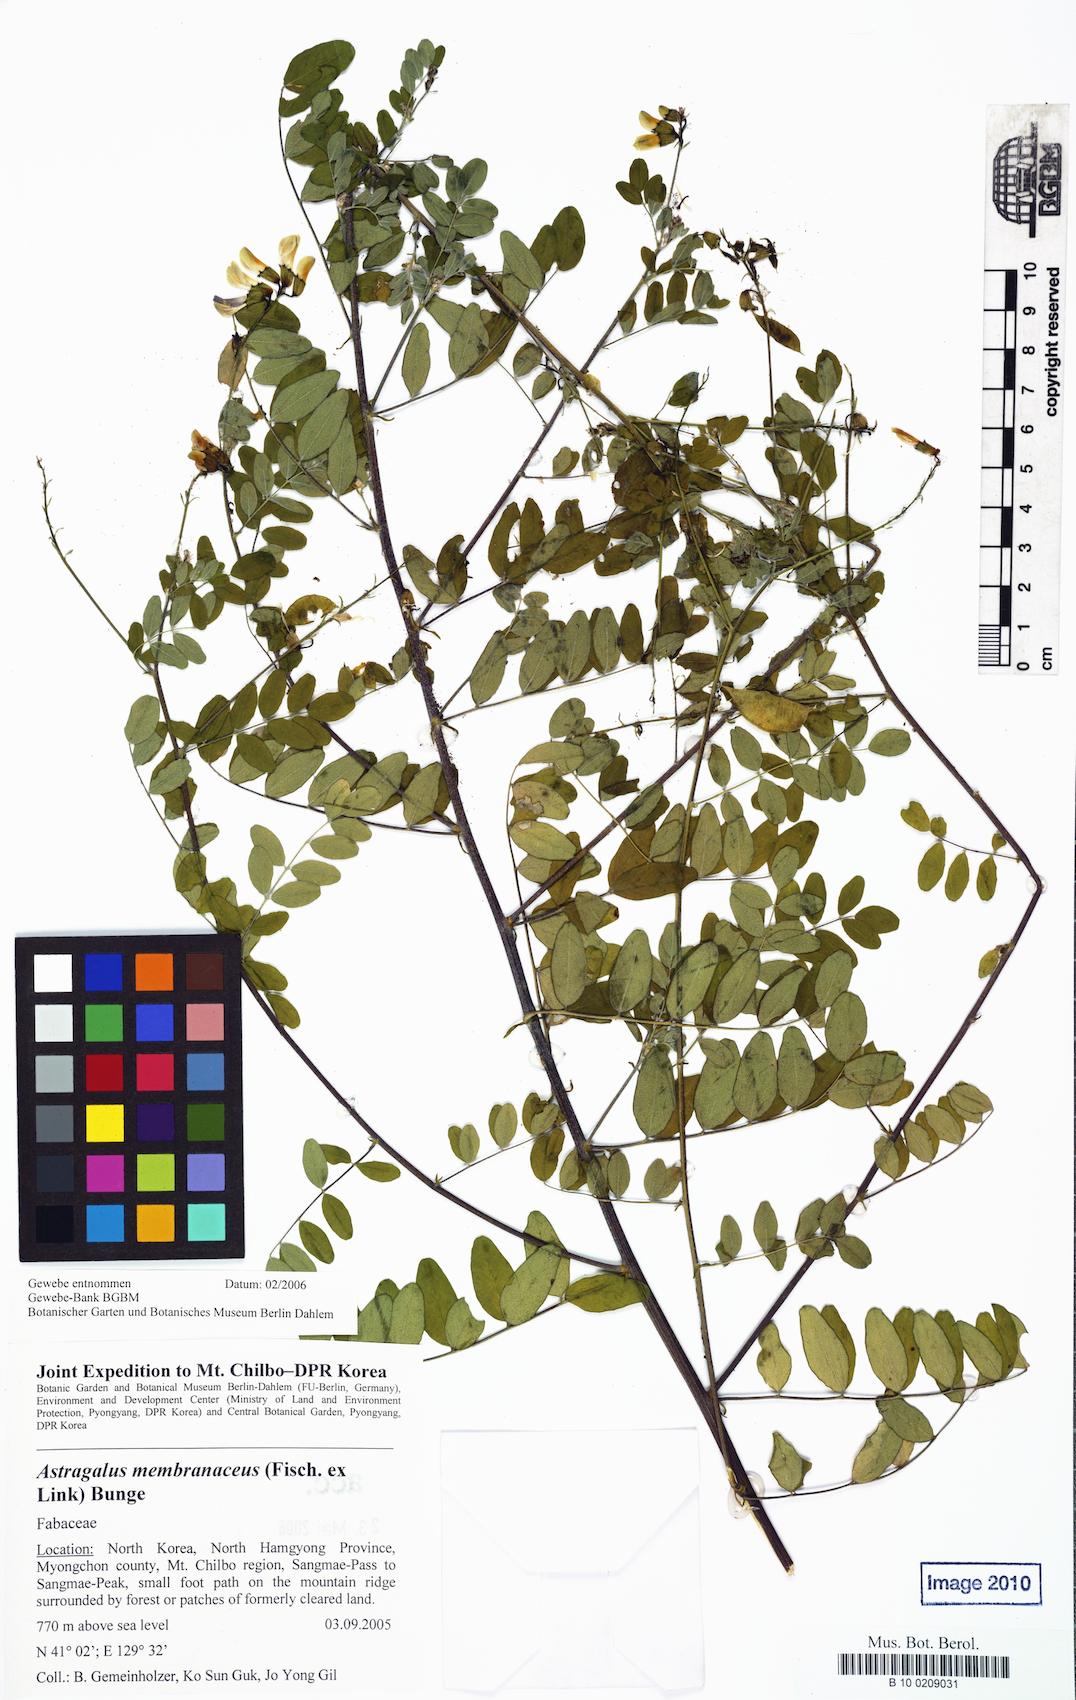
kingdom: Plantae
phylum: Tracheophyta
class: Magnoliopsida
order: Fabales
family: Fabaceae
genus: Astragalus
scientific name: Astragalus trimestris
